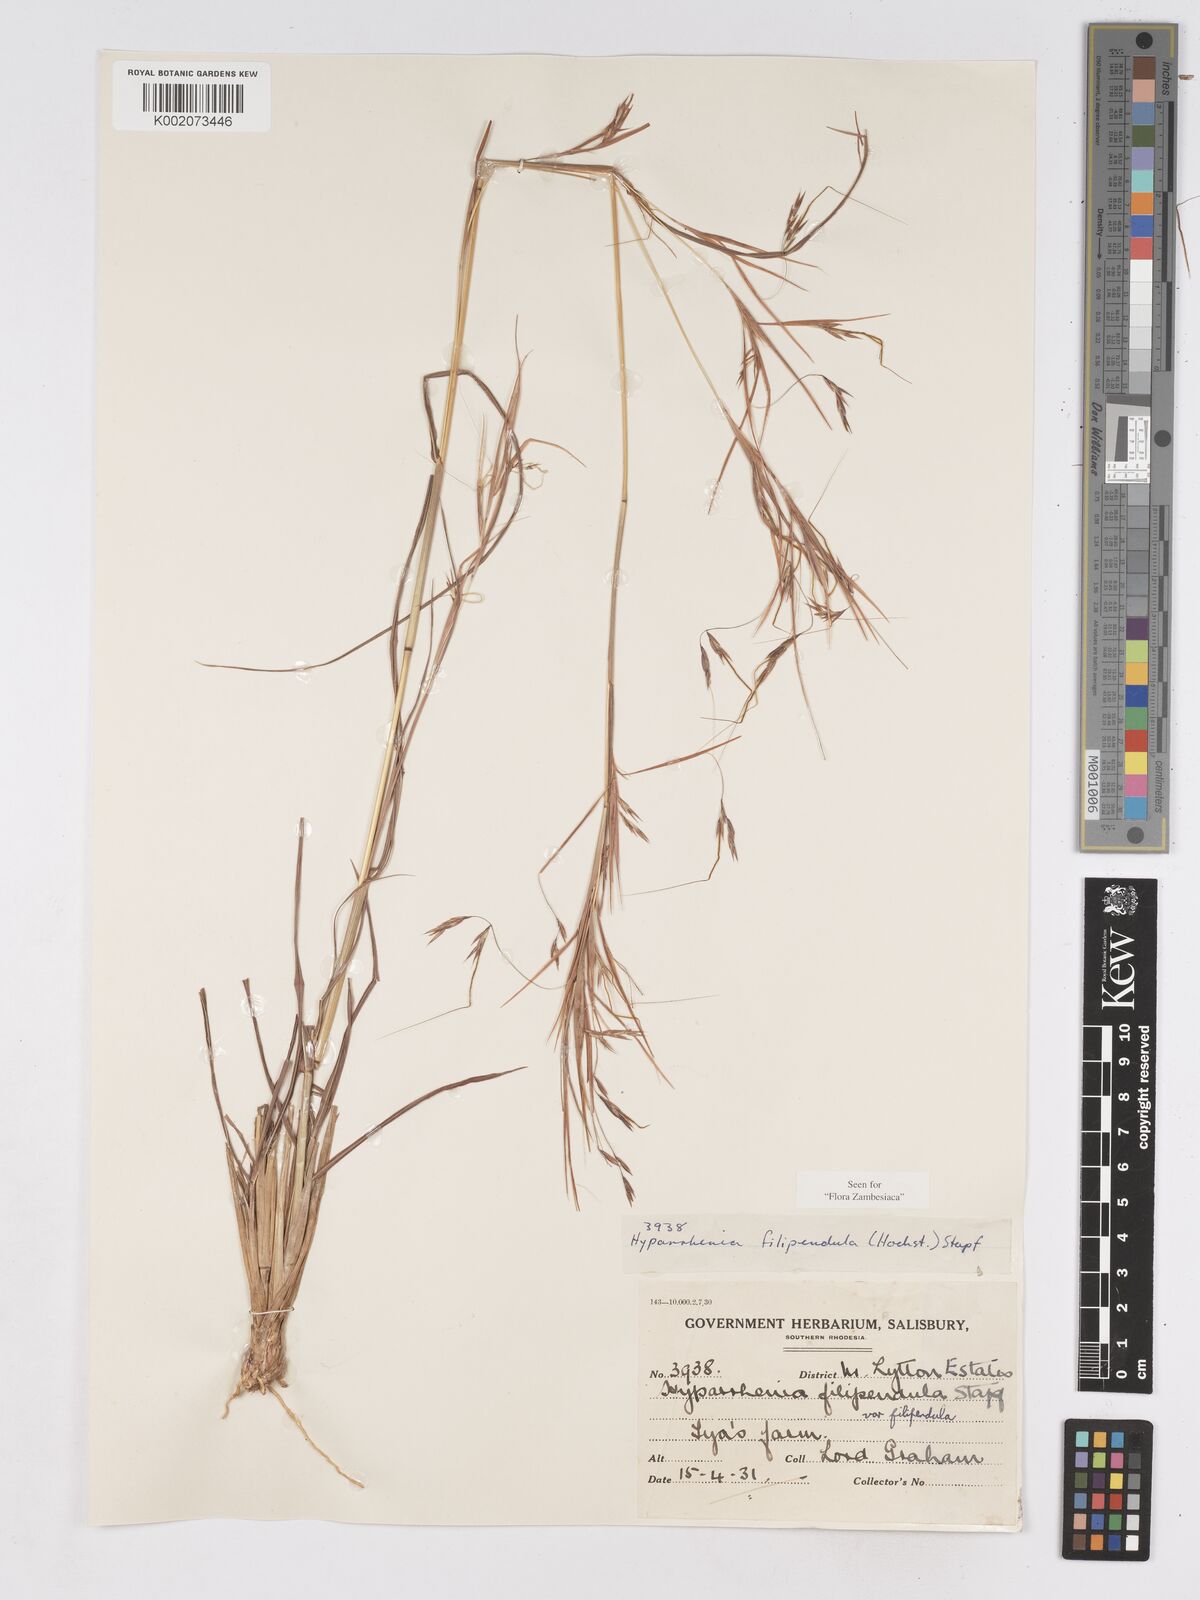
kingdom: Plantae
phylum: Tracheophyta
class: Liliopsida
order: Poales
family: Poaceae
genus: Hyparrhenia
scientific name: Hyparrhenia filipendula
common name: Tambookie grass
